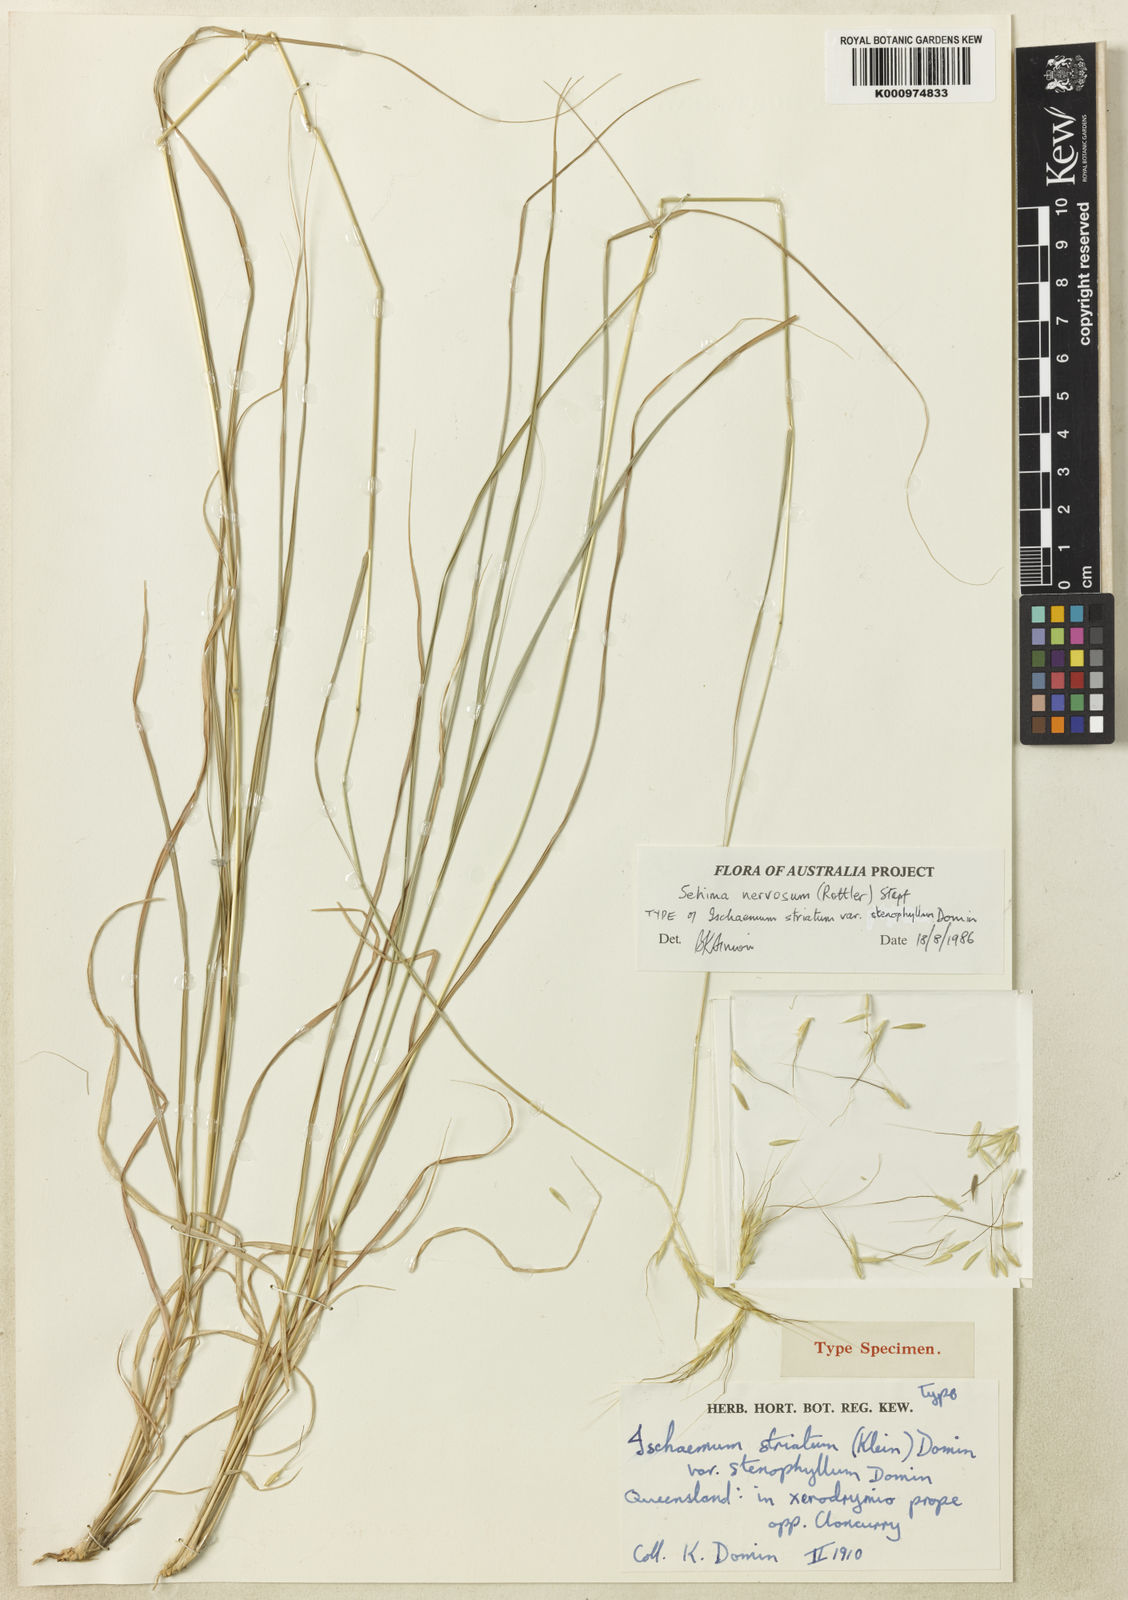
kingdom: Plantae
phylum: Tracheophyta
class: Liliopsida
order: Poales
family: Poaceae
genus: Sehima
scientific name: Sehima nervosa
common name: Rat-tail grass
